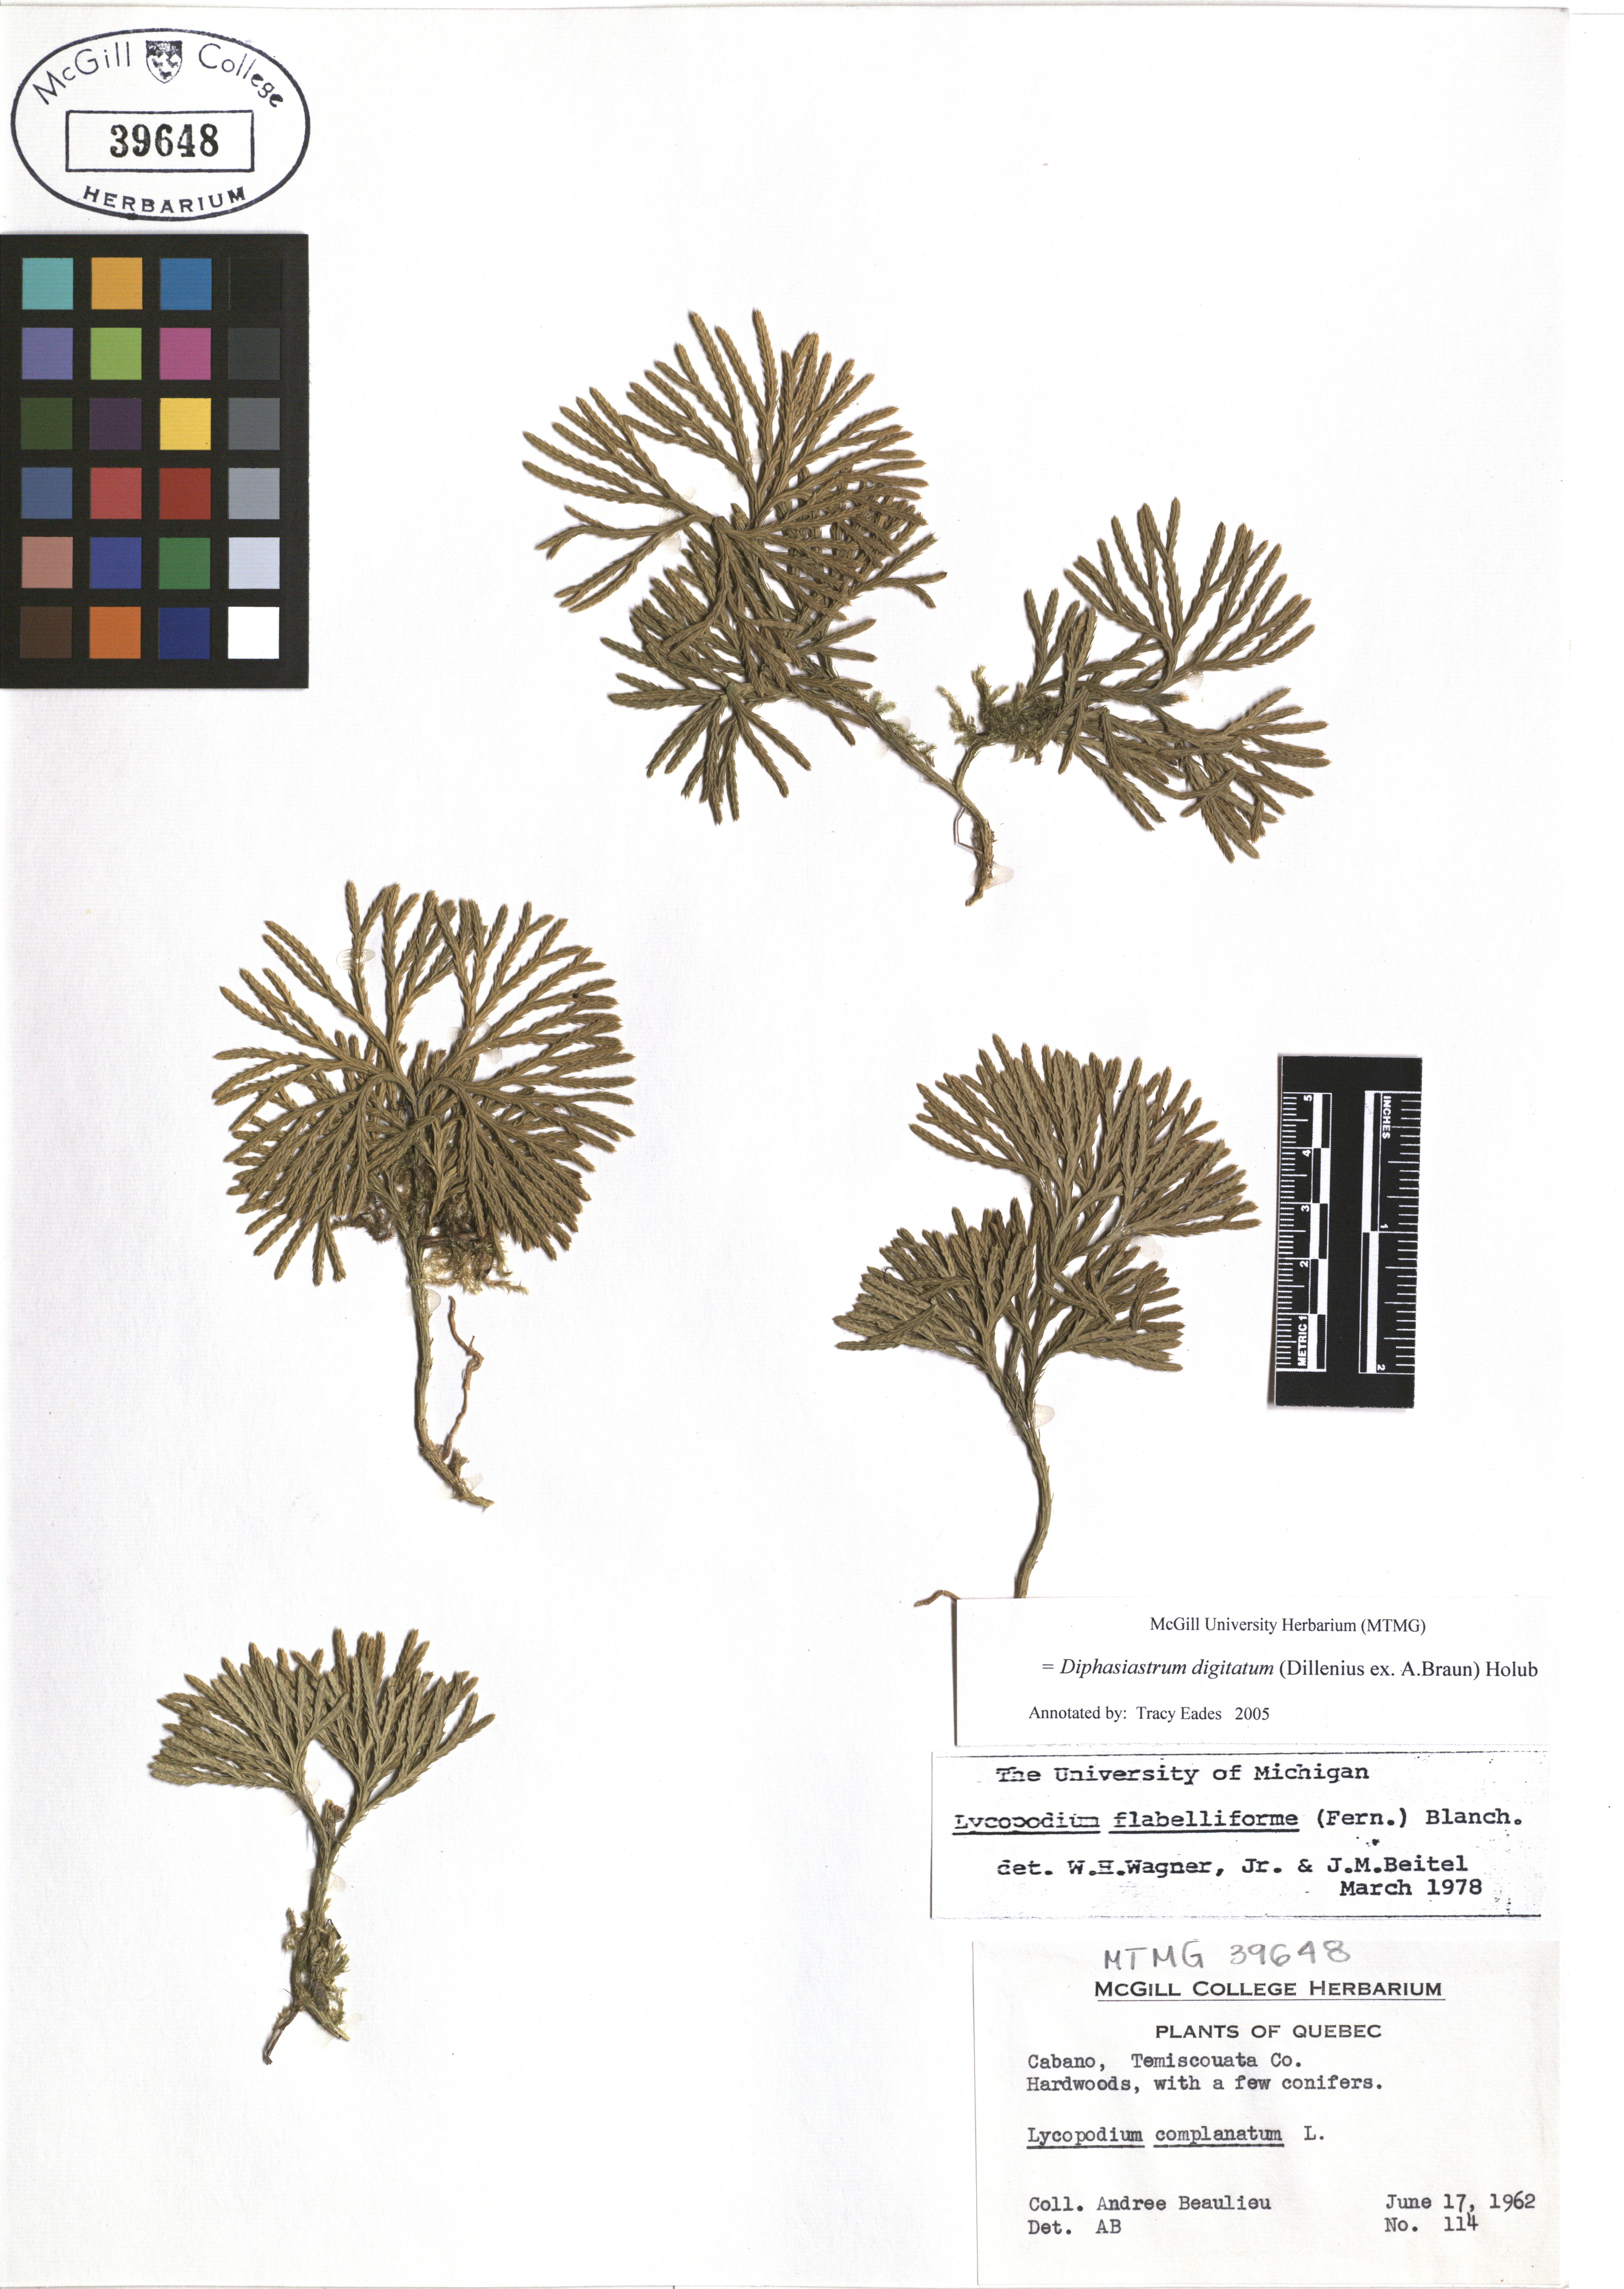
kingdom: Plantae
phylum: Tracheophyta
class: Lycopodiopsida
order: Lycopodiales
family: Lycopodiaceae
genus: Diphasiastrum
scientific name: Diphasiastrum digitatum
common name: Southern running-pine
